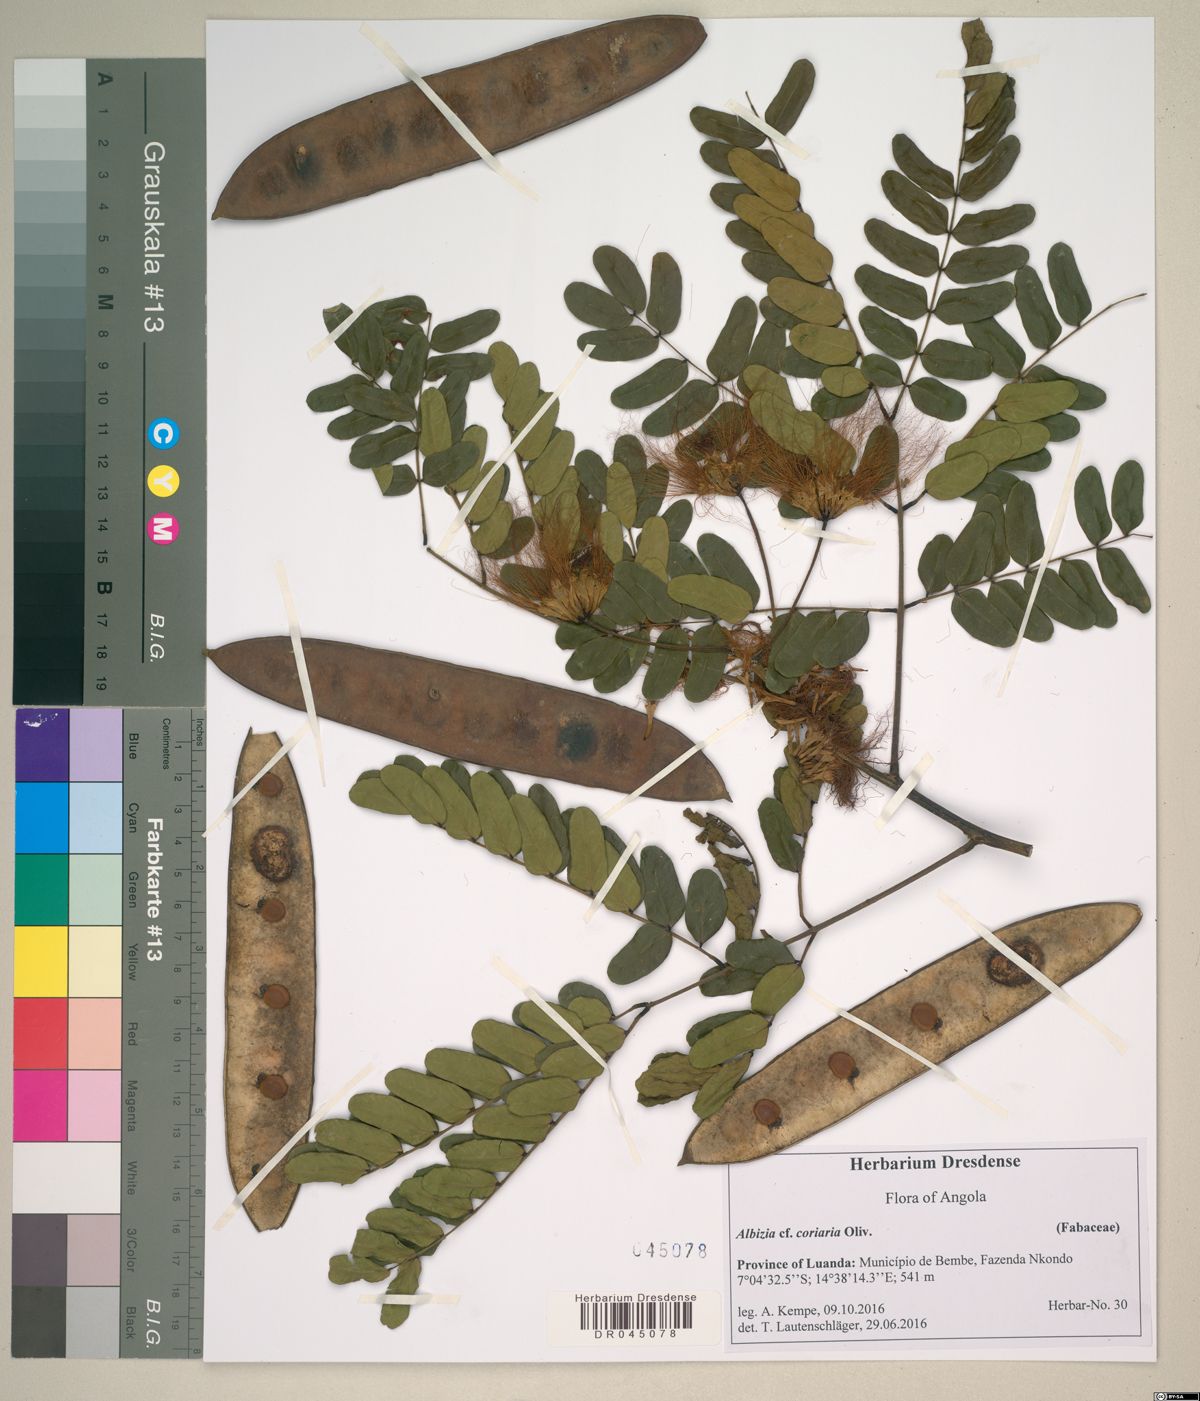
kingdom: Plantae
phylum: Tracheophyta
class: Magnoliopsida
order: Fabales
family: Fabaceae
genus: Albizia
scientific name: Albizia coriaria
